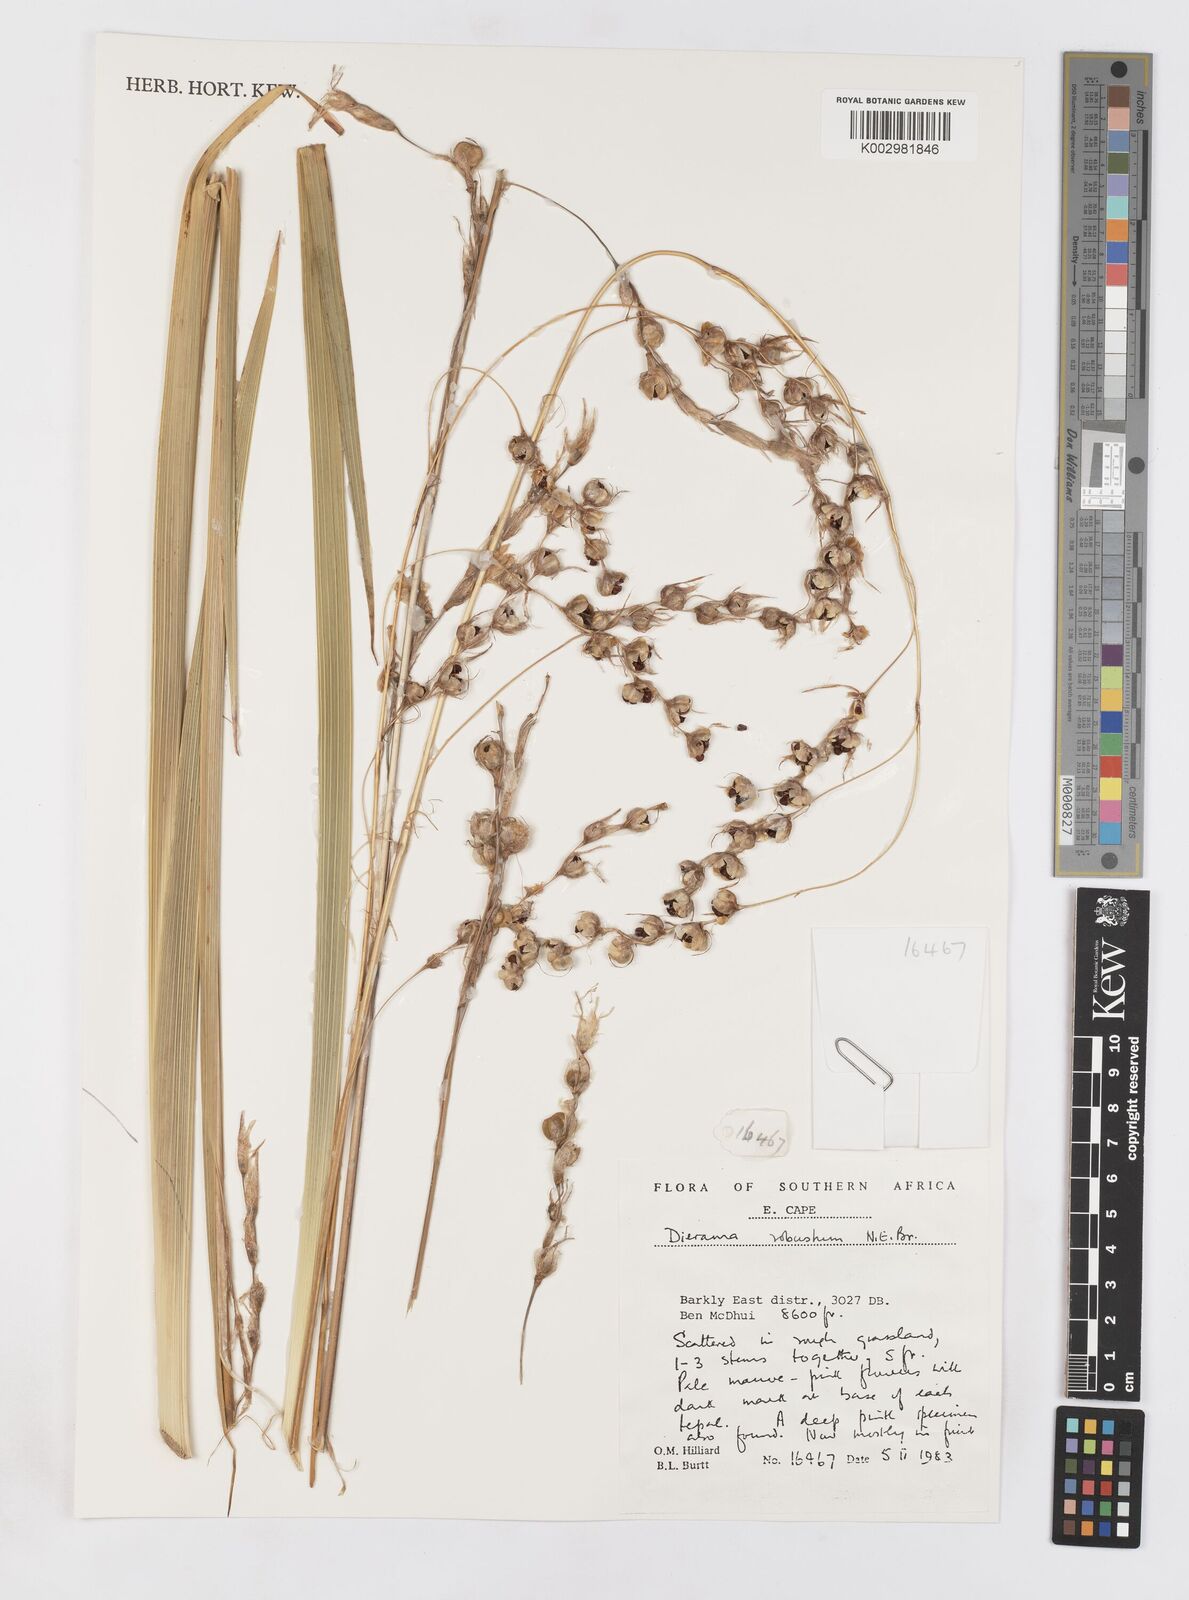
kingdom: Plantae
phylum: Tracheophyta
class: Liliopsida
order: Asparagales
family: Iridaceae
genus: Dierama
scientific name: Dierama robustum
